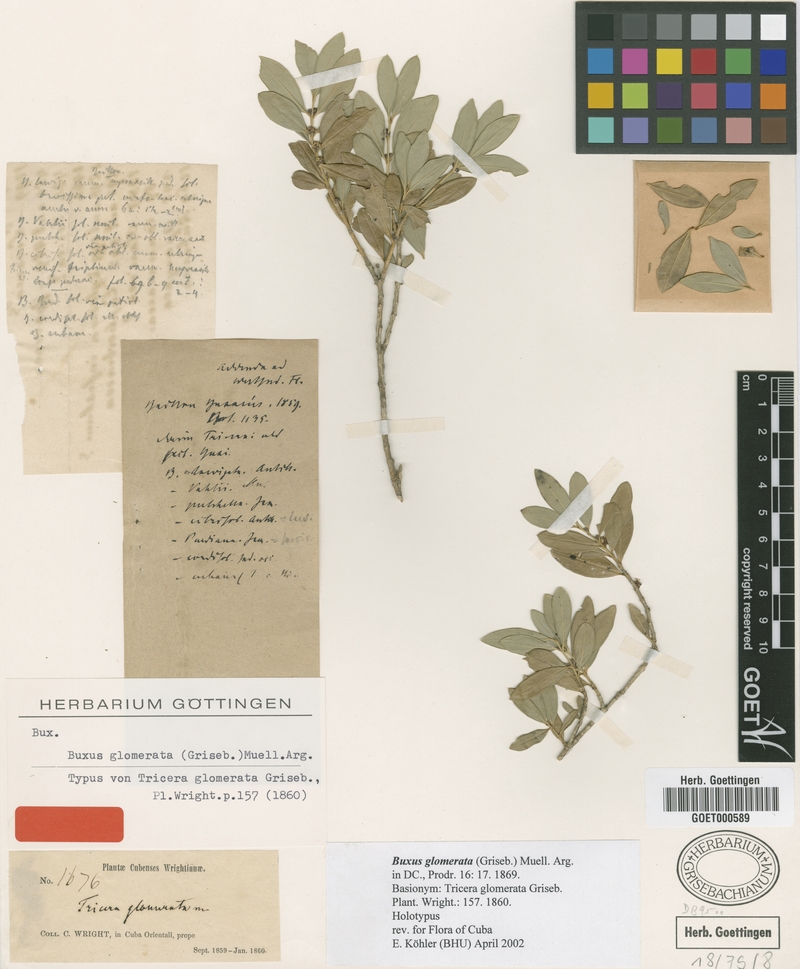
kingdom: Plantae
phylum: Tracheophyta
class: Magnoliopsida
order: Buxales
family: Buxaceae
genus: Buxus
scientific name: Buxus glomerata
